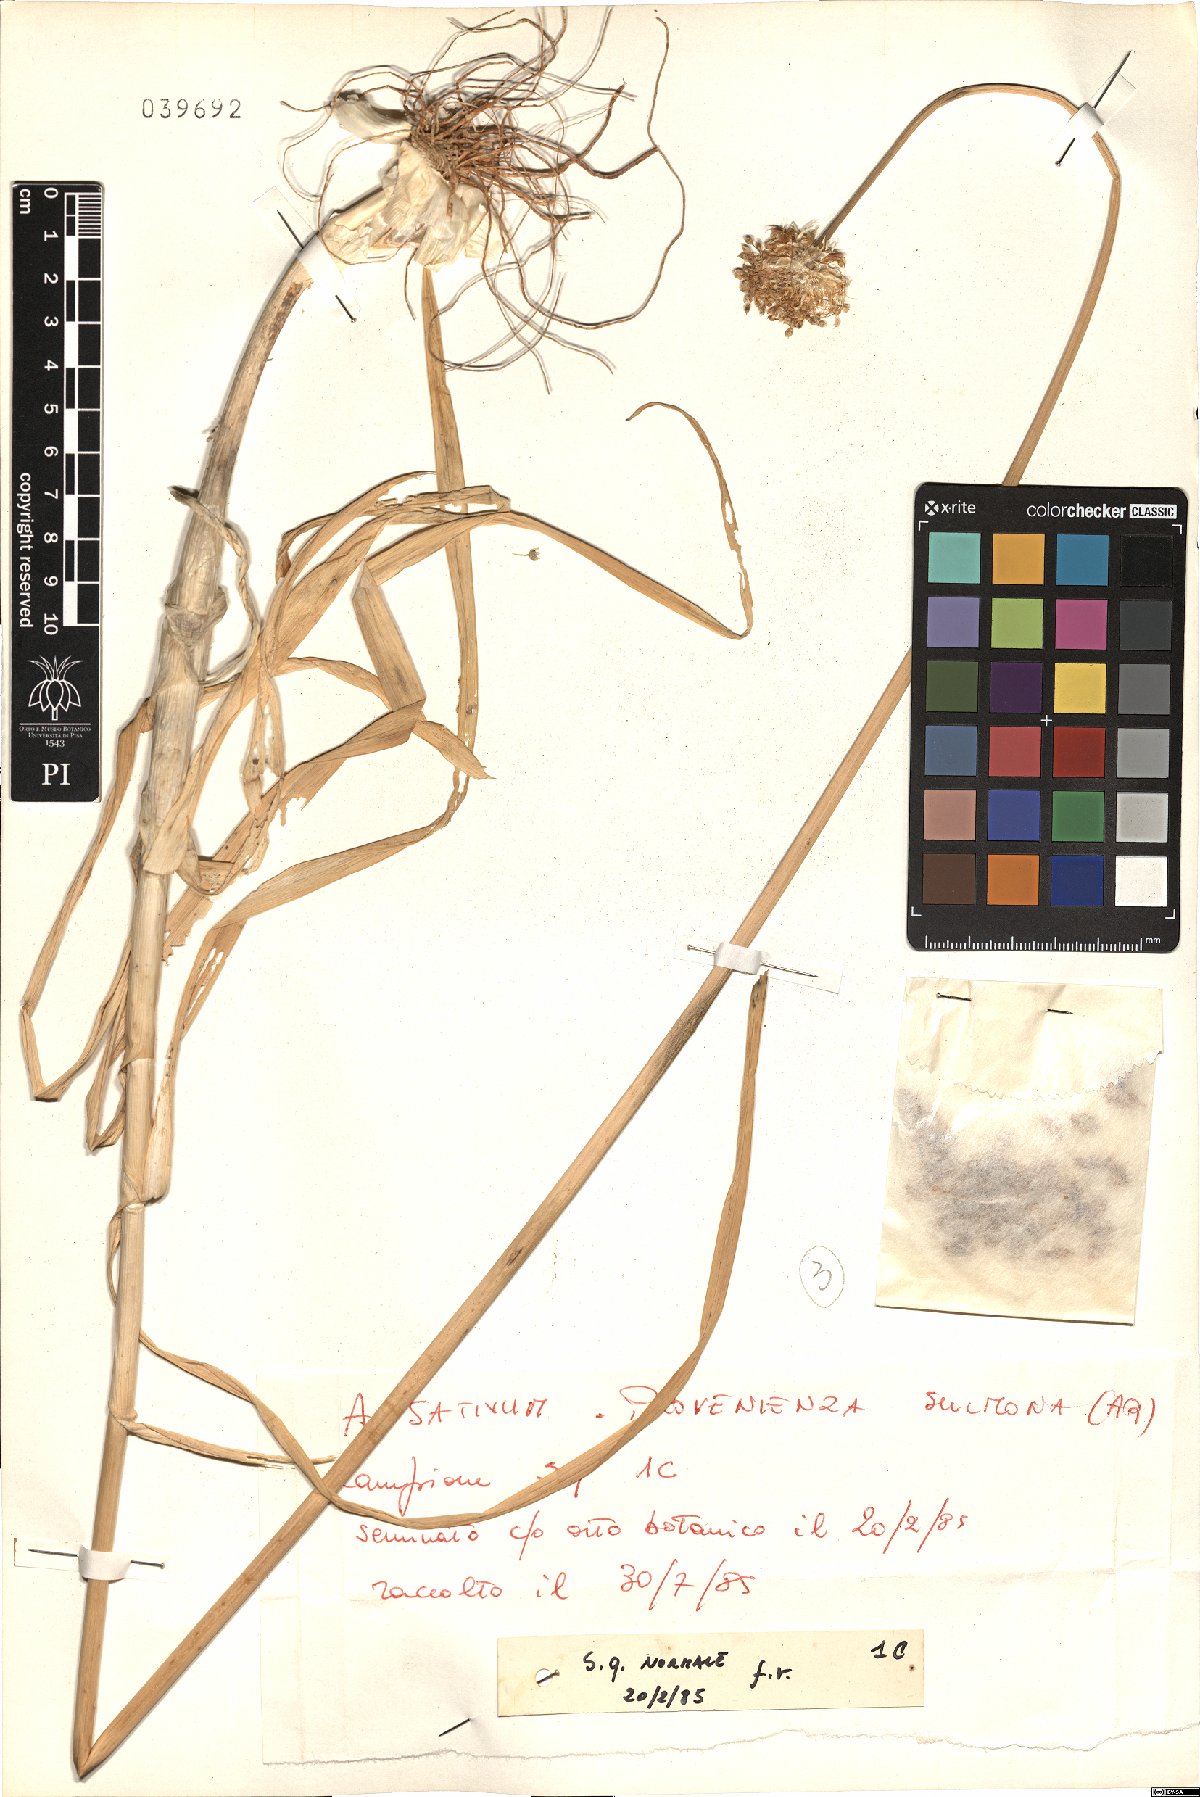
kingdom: Plantae
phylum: Tracheophyta
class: Liliopsida
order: Asparagales
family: Amaryllidaceae
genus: Allium
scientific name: Allium sativum
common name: Garlic
